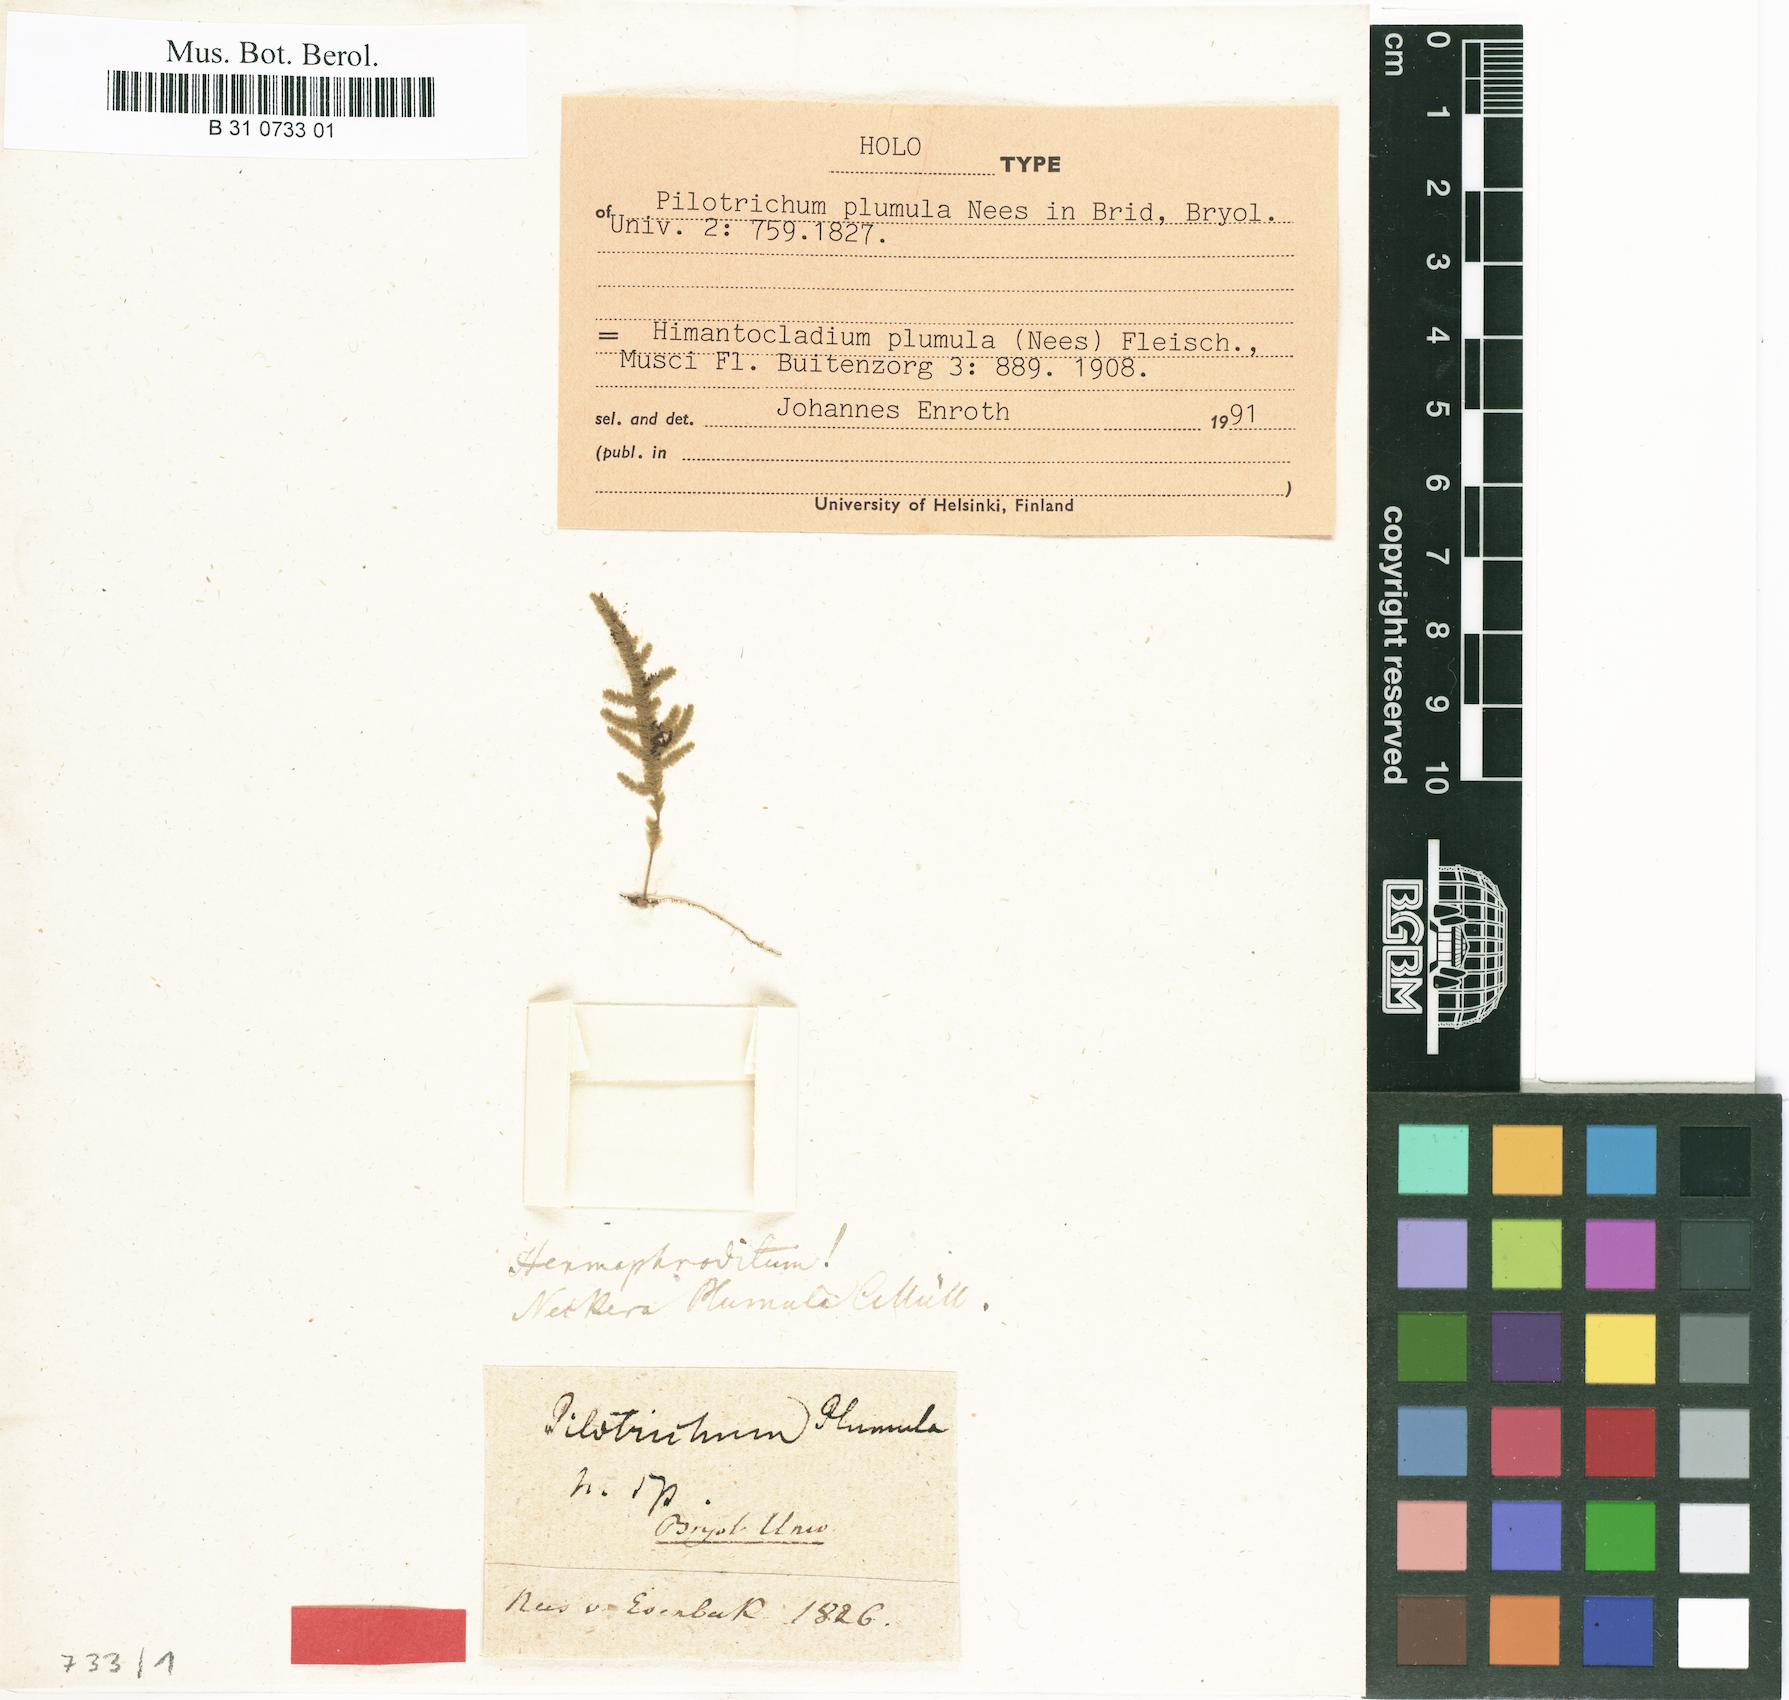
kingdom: Plantae
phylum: Bryophyta
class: Bryopsida
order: Hypnales
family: Neckeraceae
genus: Himantocladium
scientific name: Himantocladium plumula
